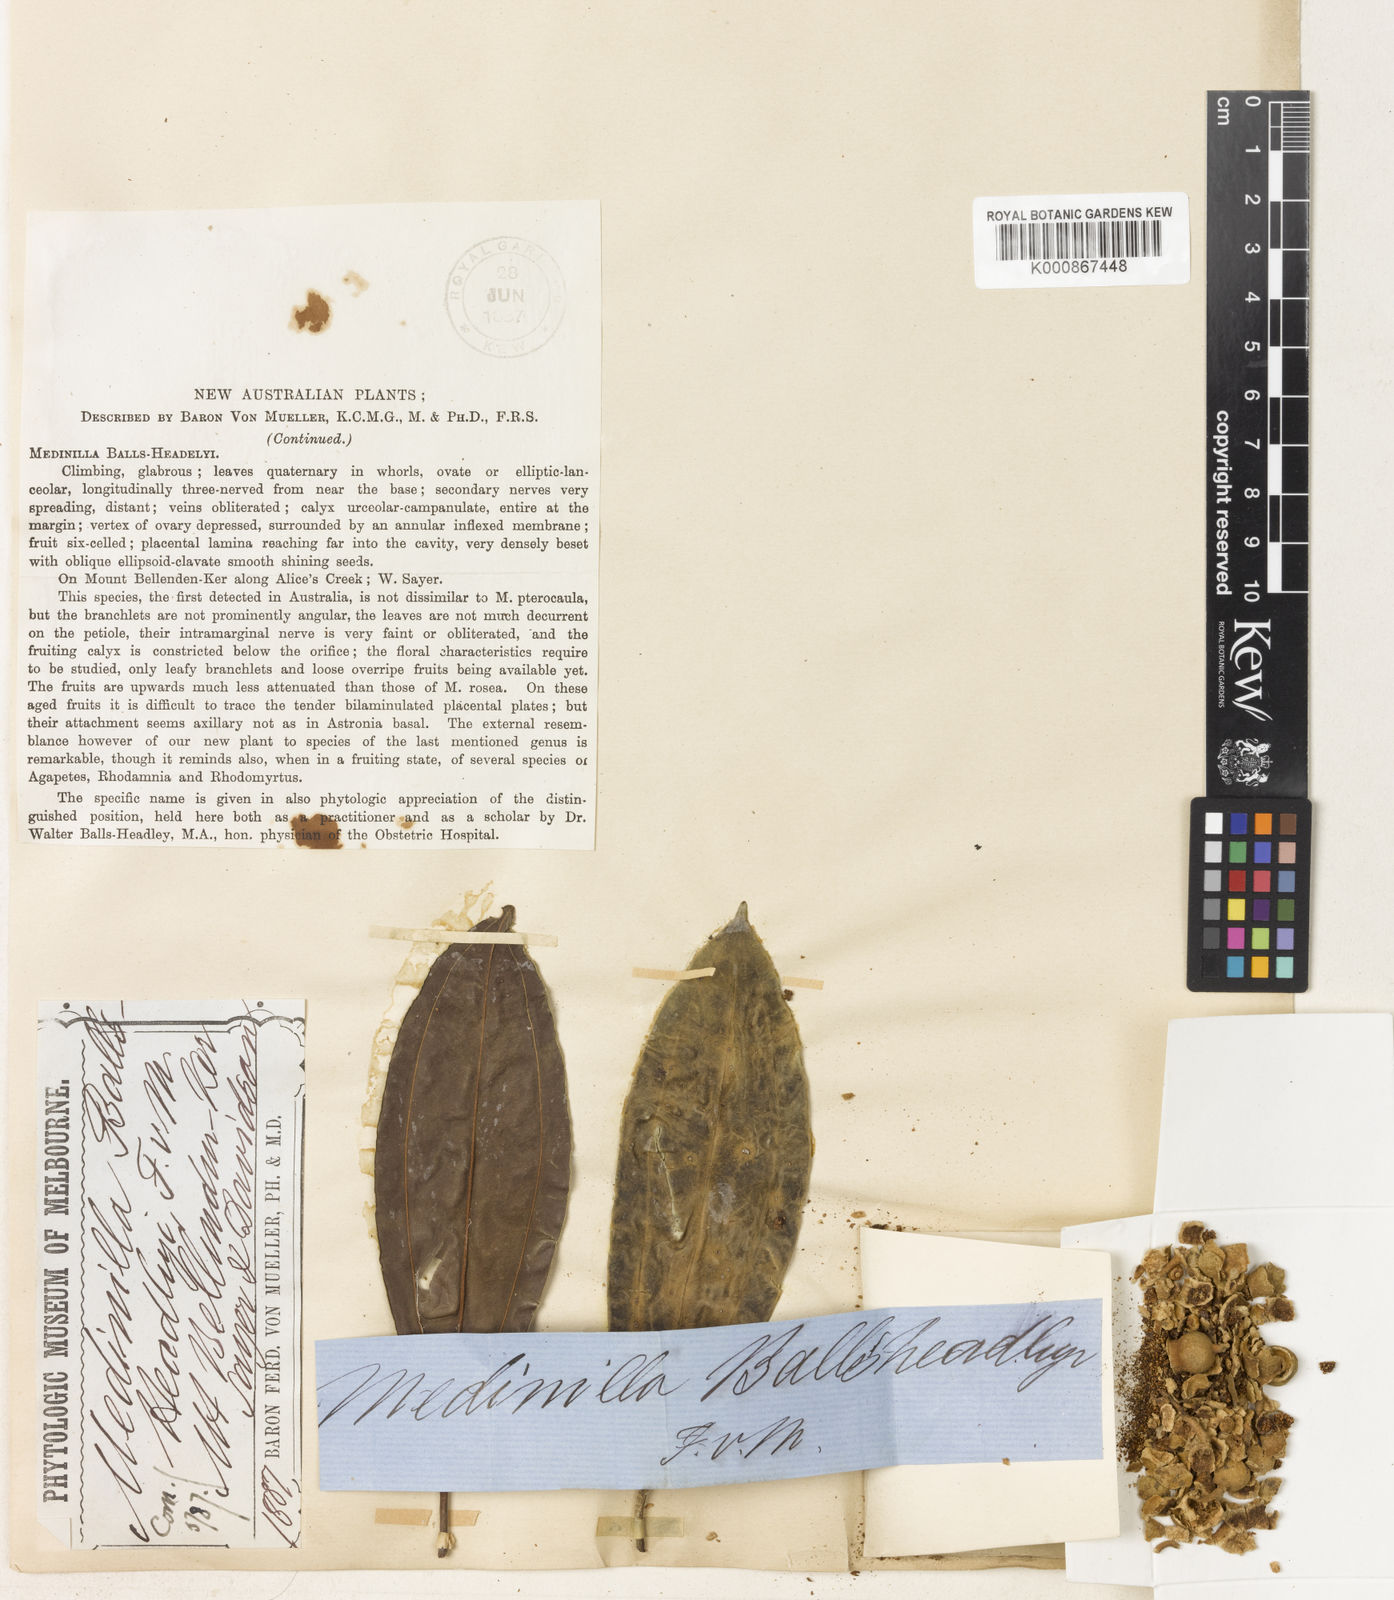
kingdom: Plantae
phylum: Tracheophyta
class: Magnoliopsida
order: Myrtales
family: Melastomataceae
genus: Medinilla
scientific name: Medinilla balls-headleyi
